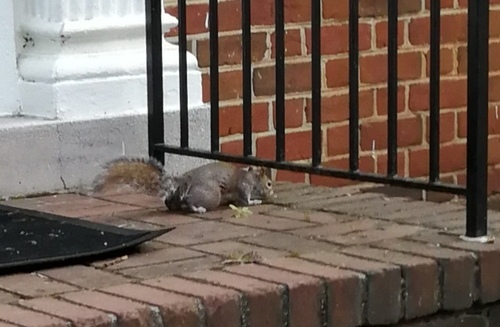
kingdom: Animalia
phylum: Chordata
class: Mammalia
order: Rodentia
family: Sciuridae
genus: Sciurus
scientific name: Sciurus carolinensis
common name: Eastern gray squirrel
